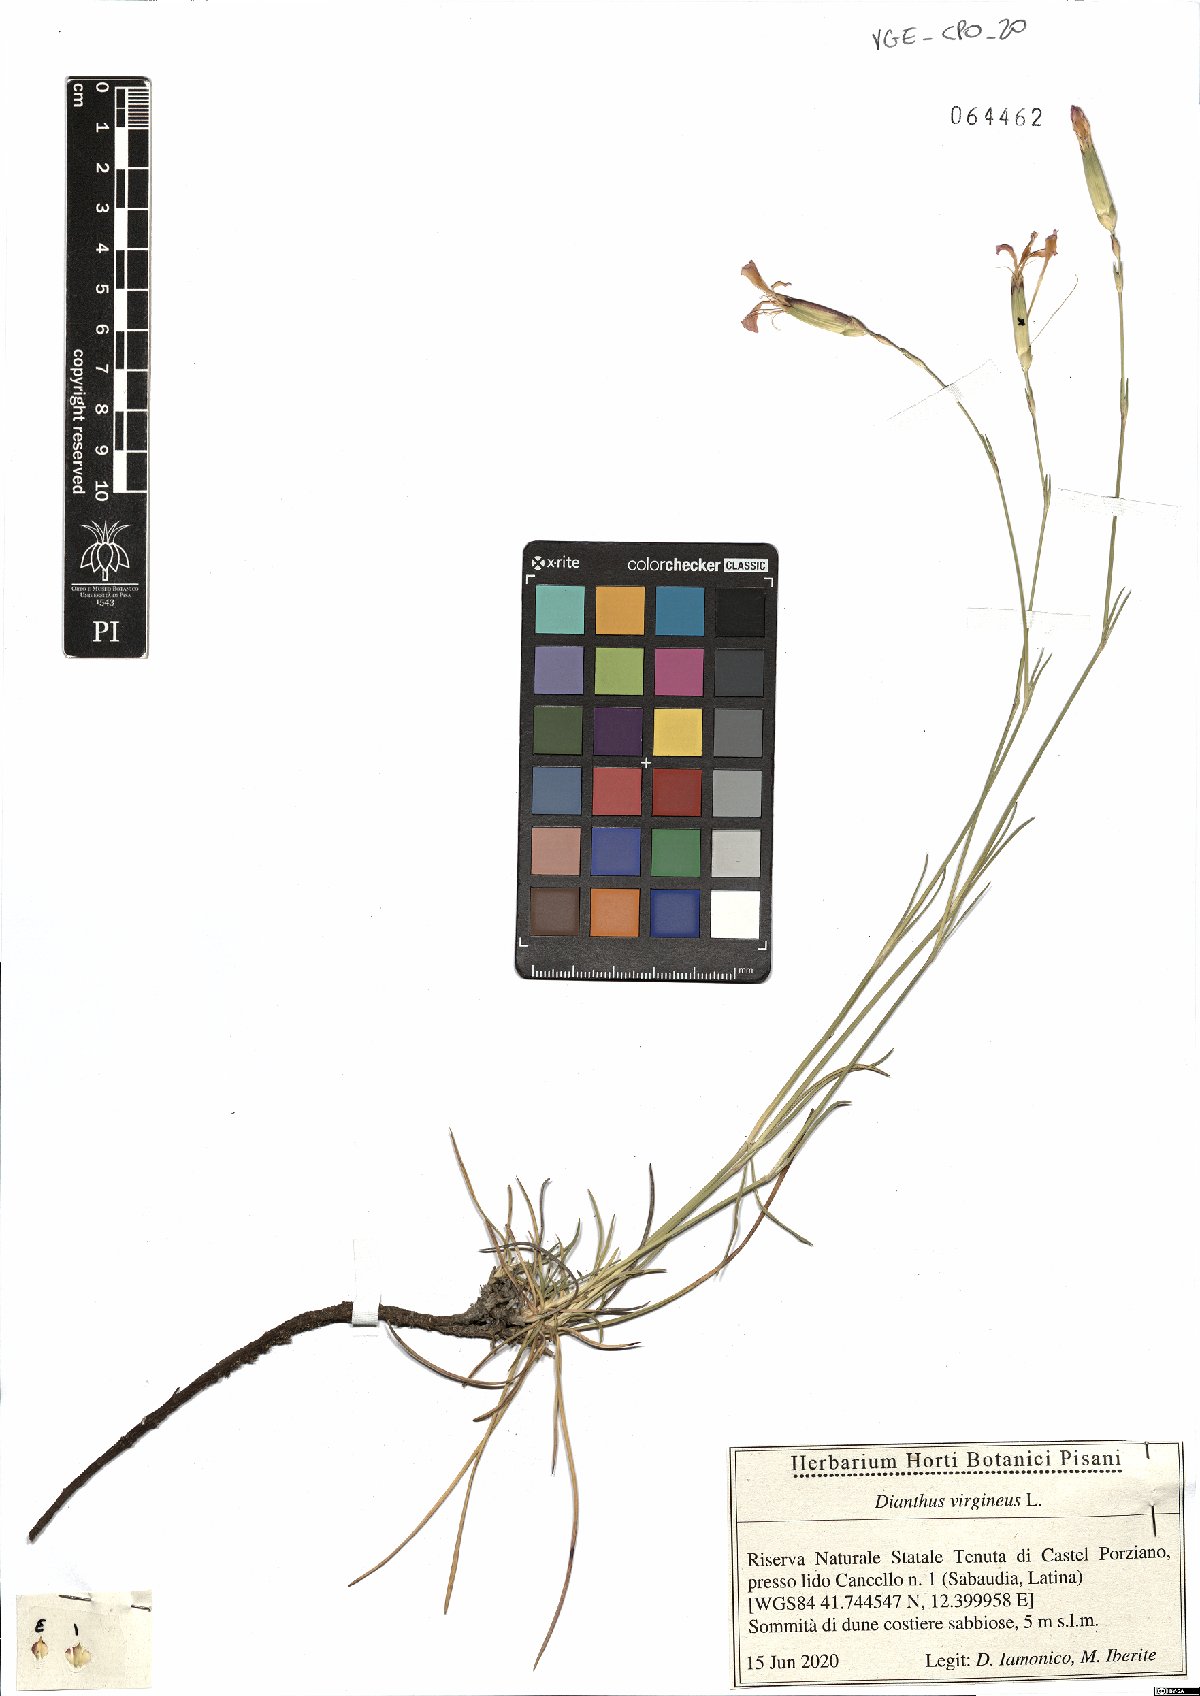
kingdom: Plantae
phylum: Tracheophyta
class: Magnoliopsida
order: Caryophyllales
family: Caryophyllaceae
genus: Dianthus
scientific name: Dianthus virgineus
